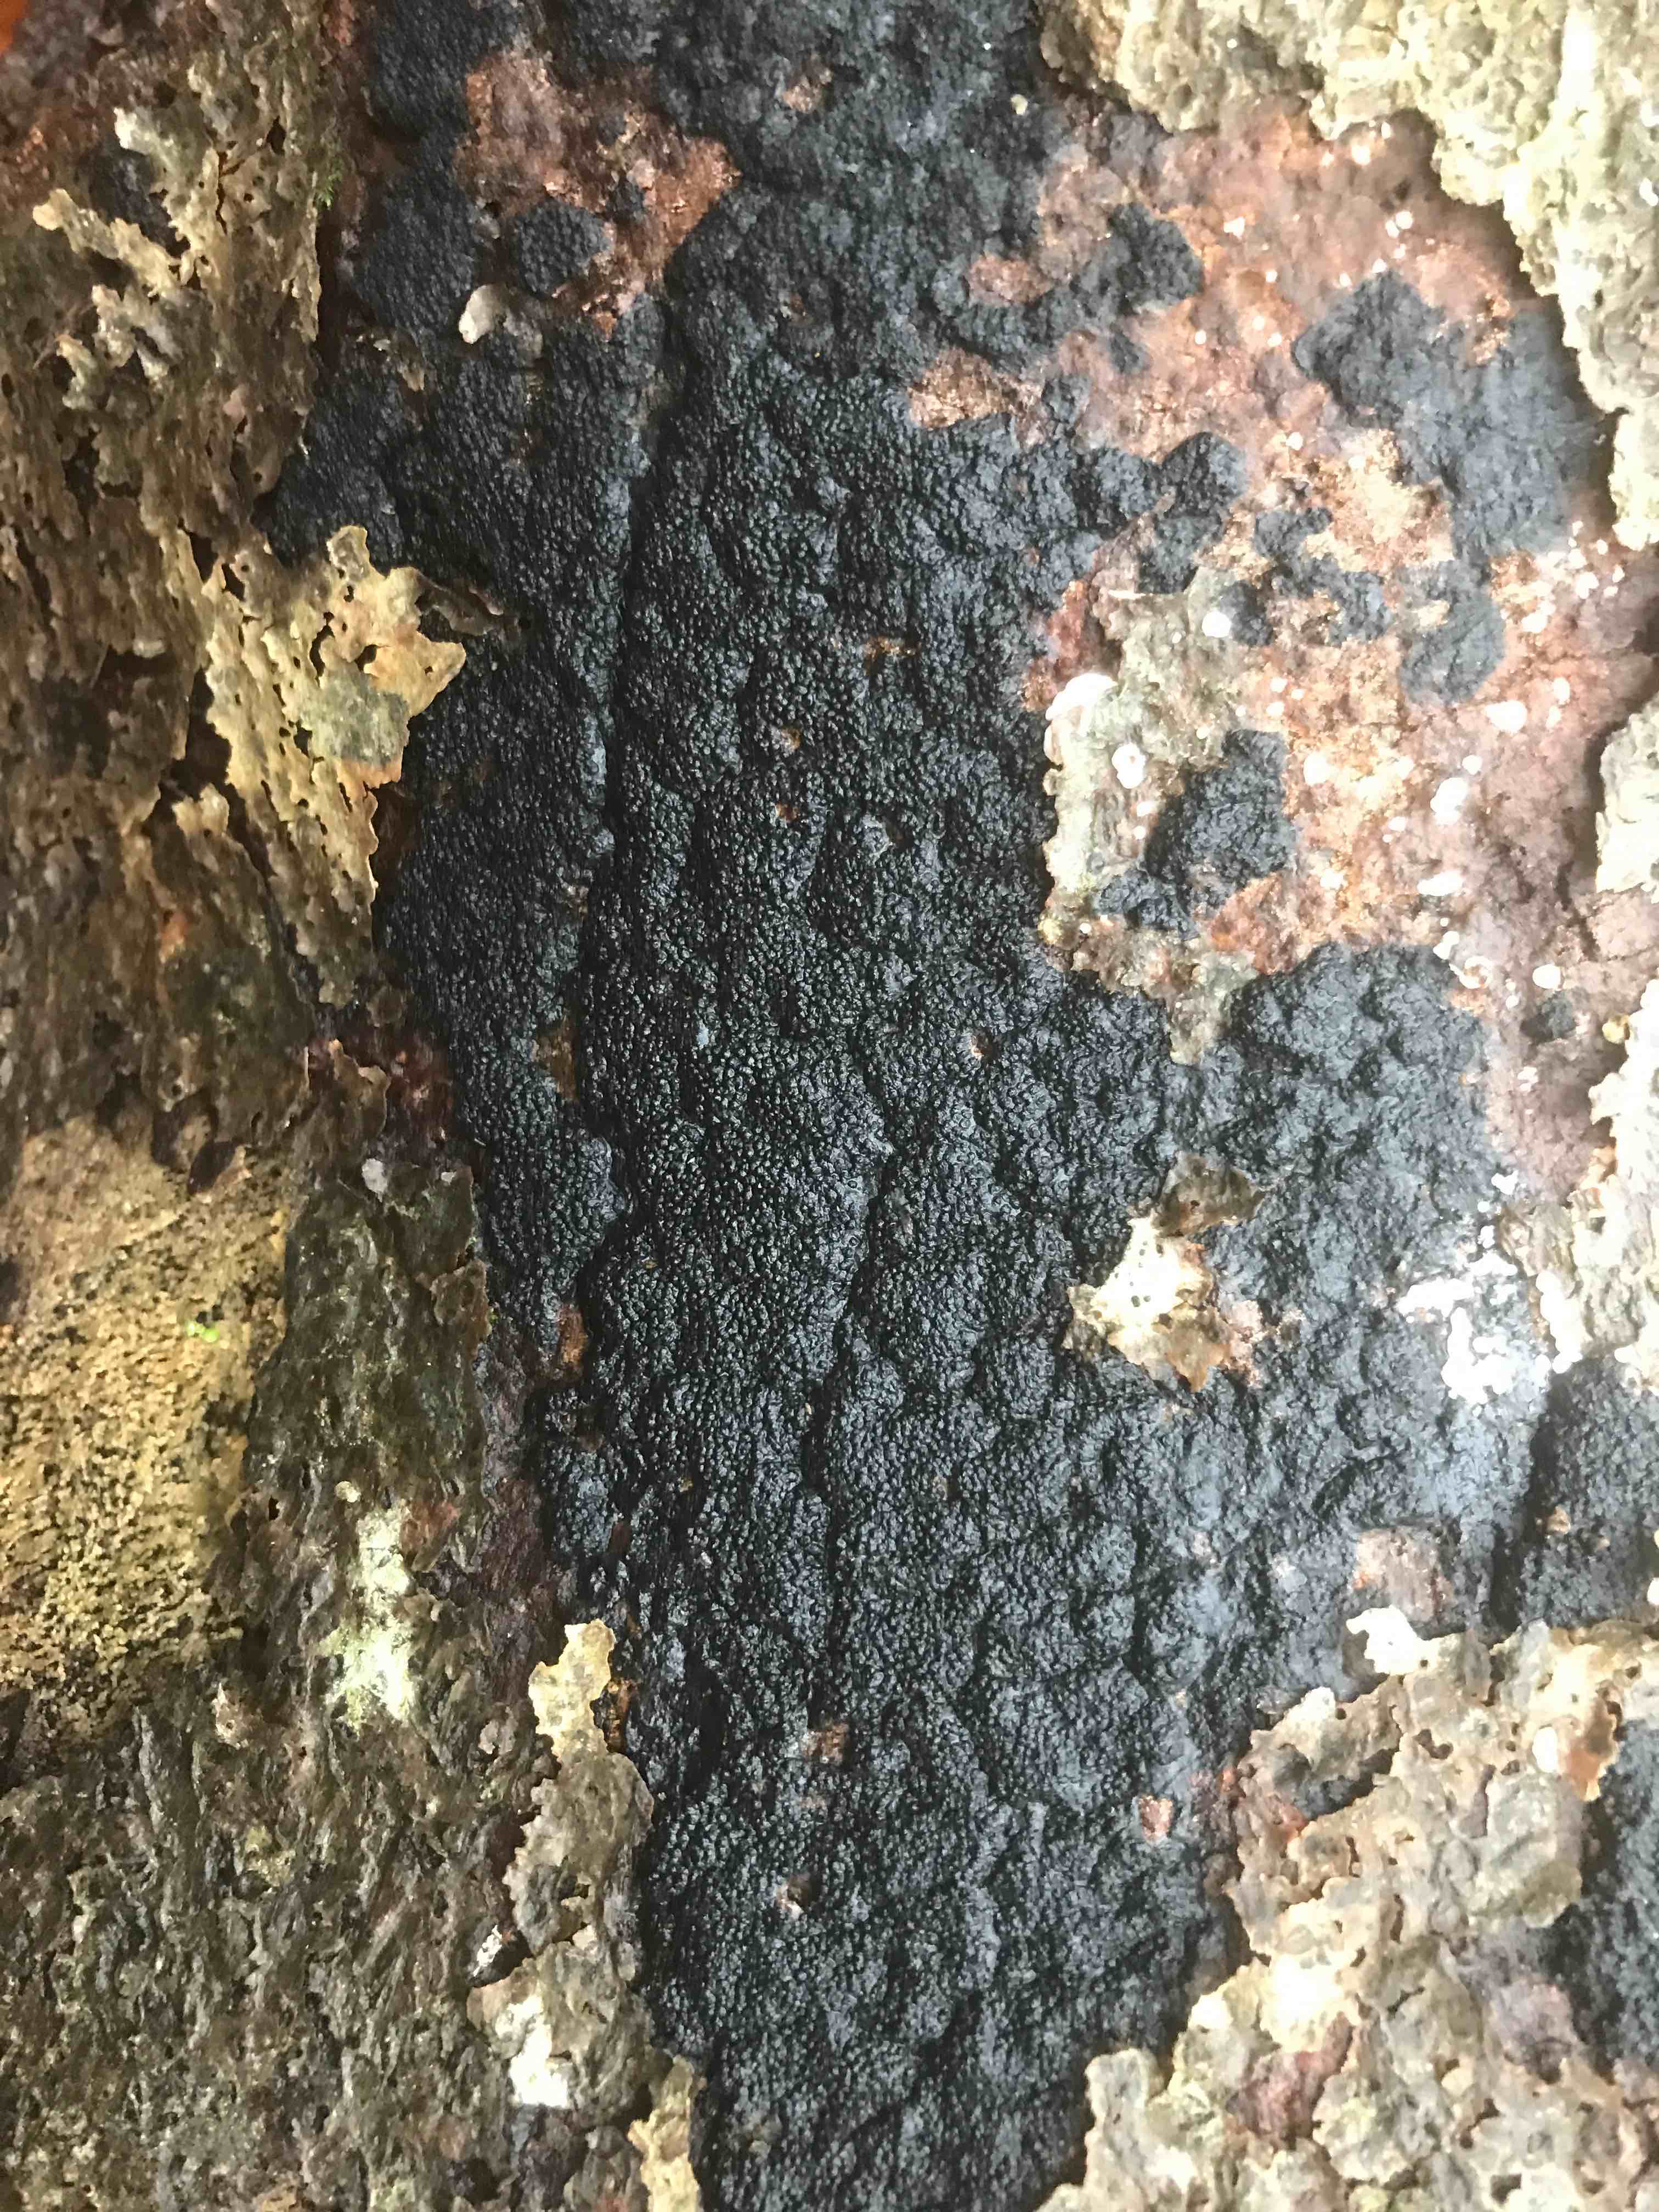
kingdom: Fungi
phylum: Ascomycota
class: Sordariomycetes
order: Xylariales
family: Hypoxylaceae
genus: Jackrogersella
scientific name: Jackrogersella cohaerens
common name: sammenflydende kulbær
